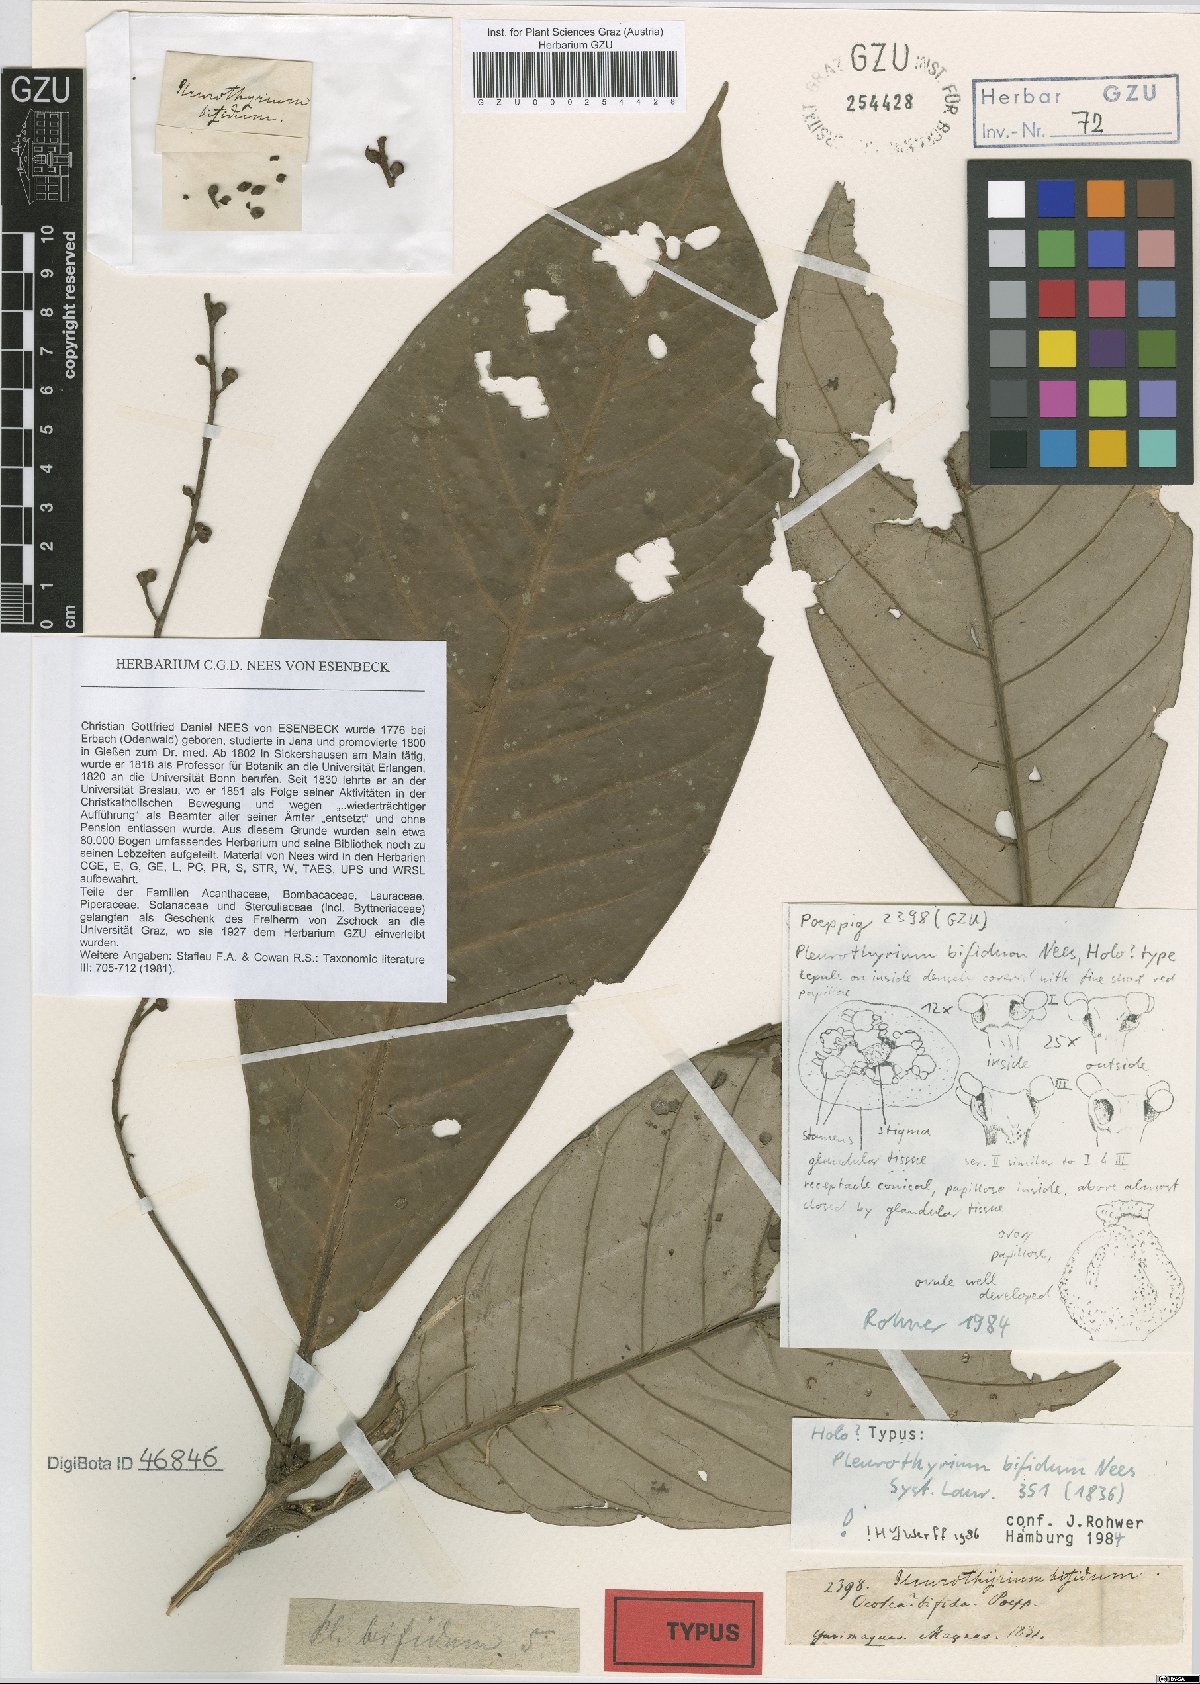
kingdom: Plantae
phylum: Tracheophyta
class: Magnoliopsida
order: Laurales
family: Lauraceae
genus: Pleurothyrium
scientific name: Pleurothyrium bifidum
